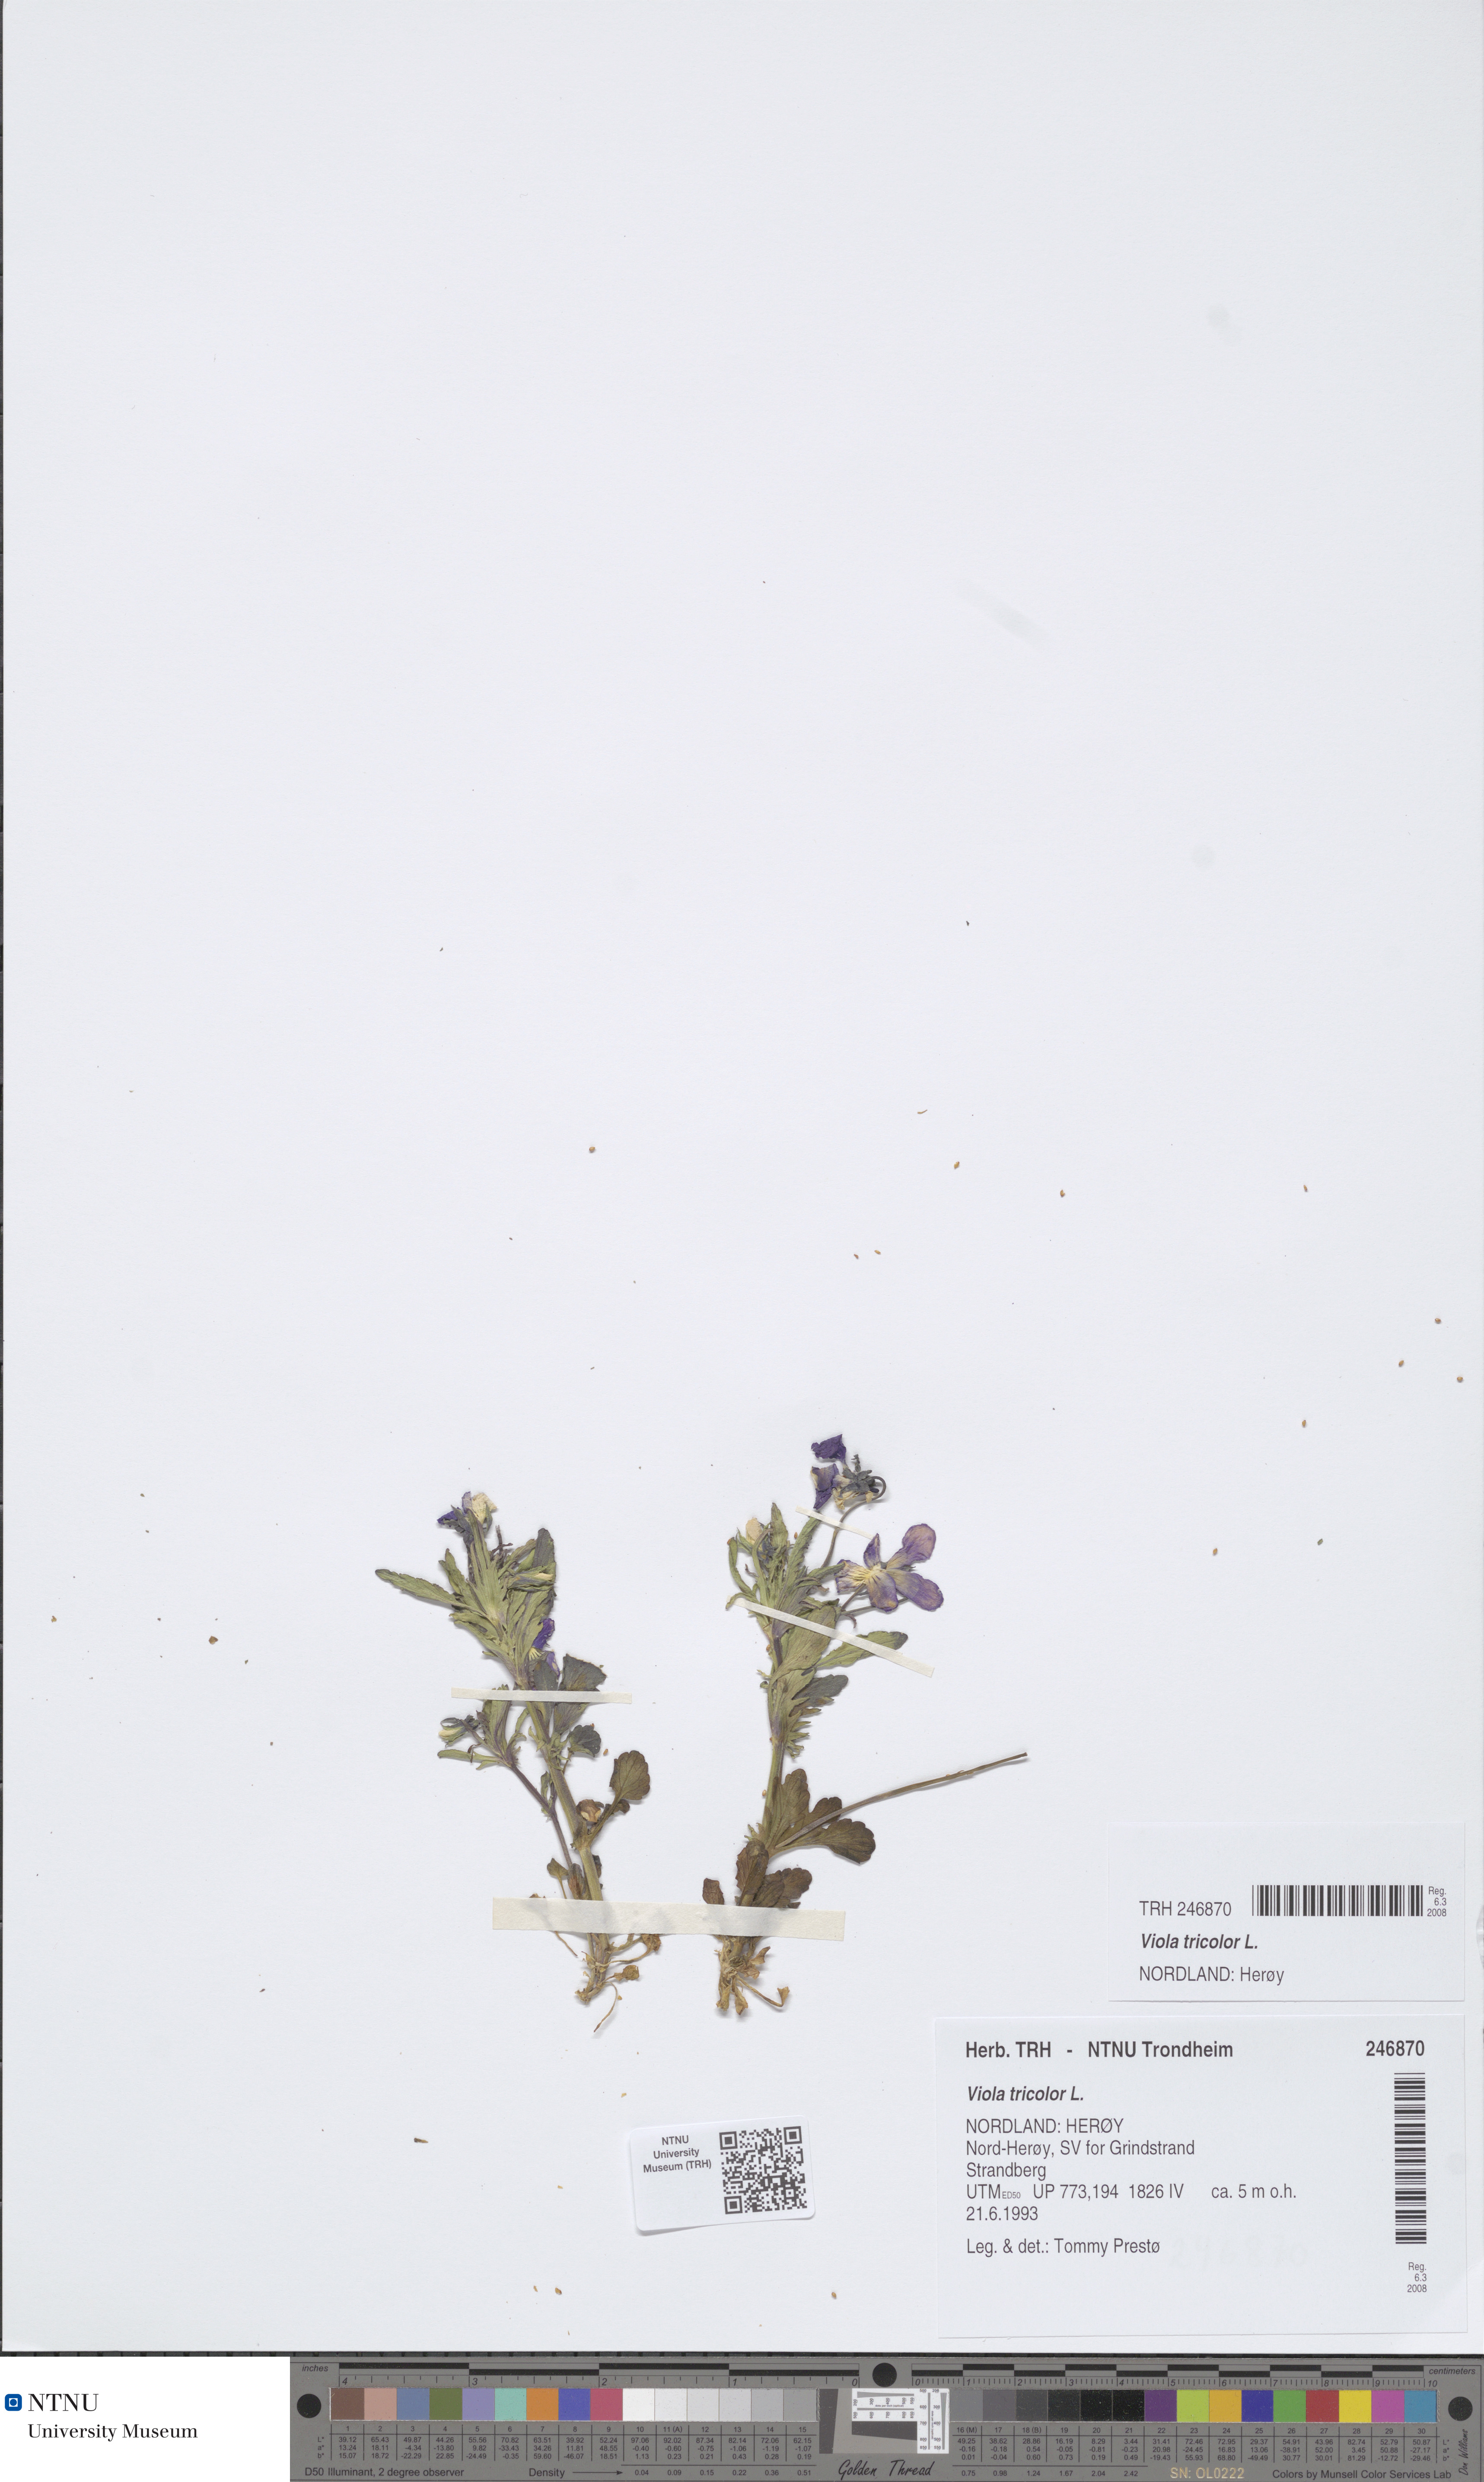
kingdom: Plantae
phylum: Tracheophyta
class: Magnoliopsida
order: Malpighiales
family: Violaceae
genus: Viola
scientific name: Viola tricolor
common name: Pansy
